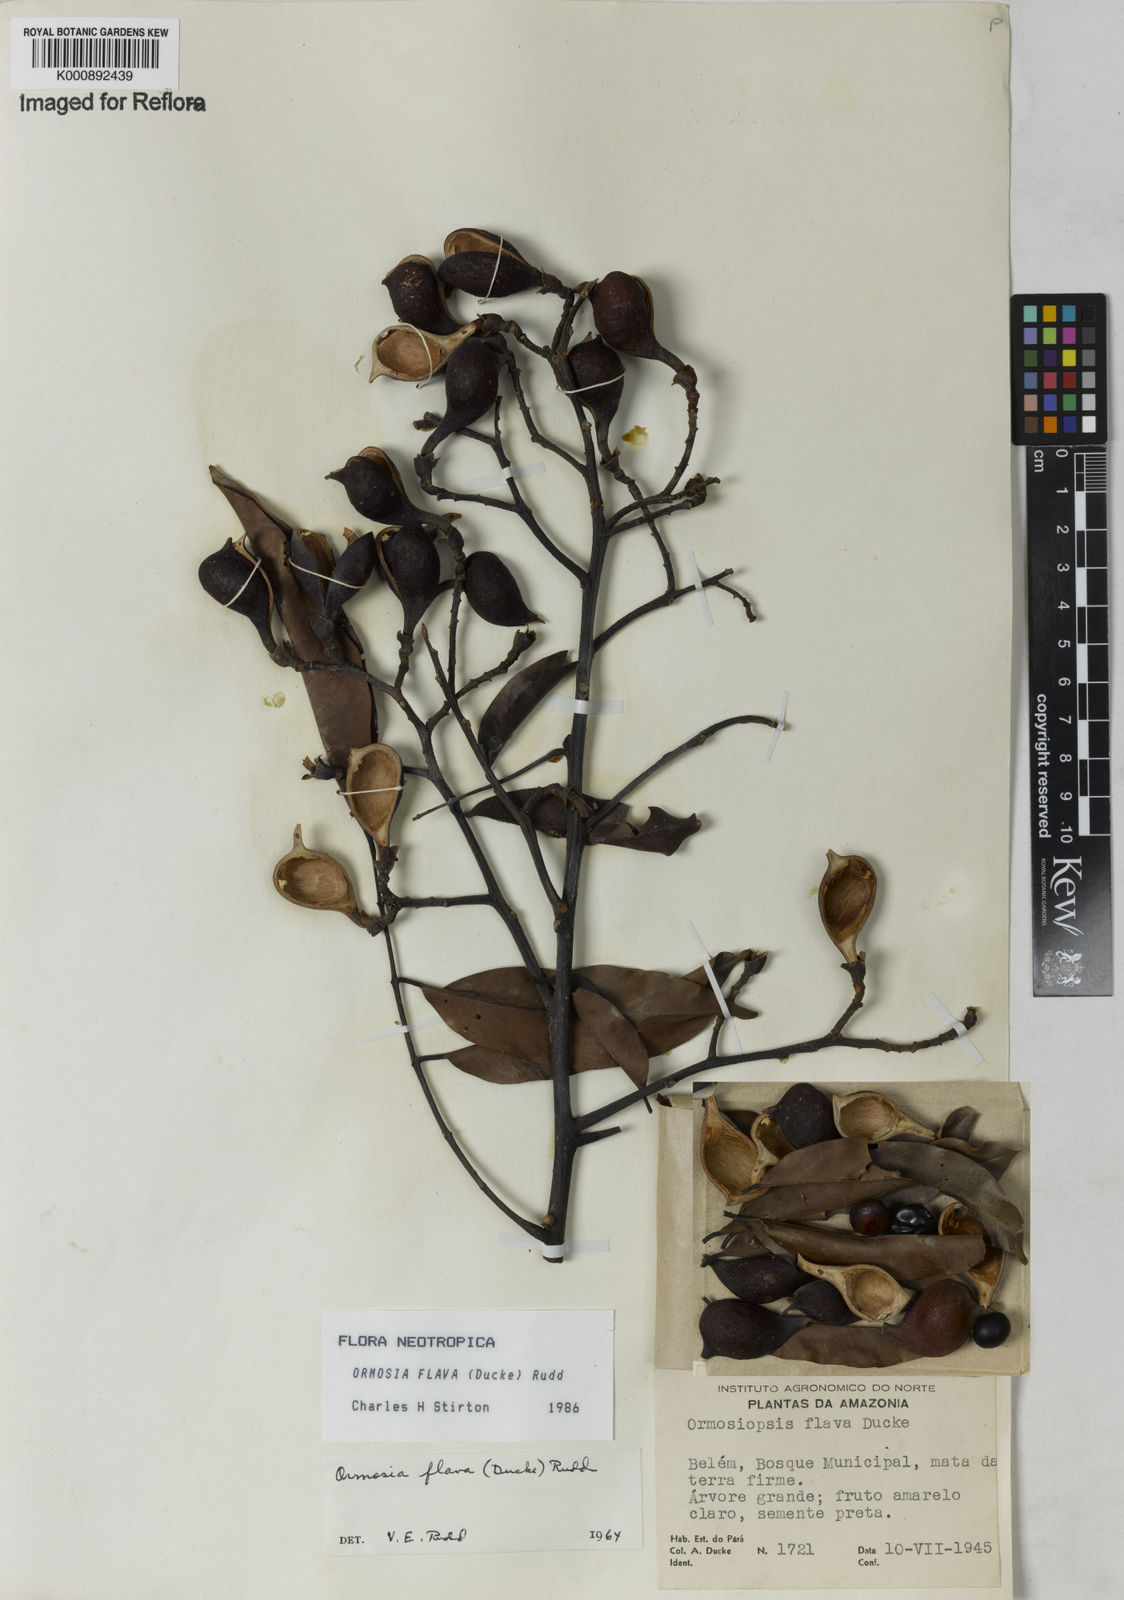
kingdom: Plantae
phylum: Tracheophyta
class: Magnoliopsida
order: Fabales
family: Fabaceae
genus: Ormosia
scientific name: Ormosia flava
